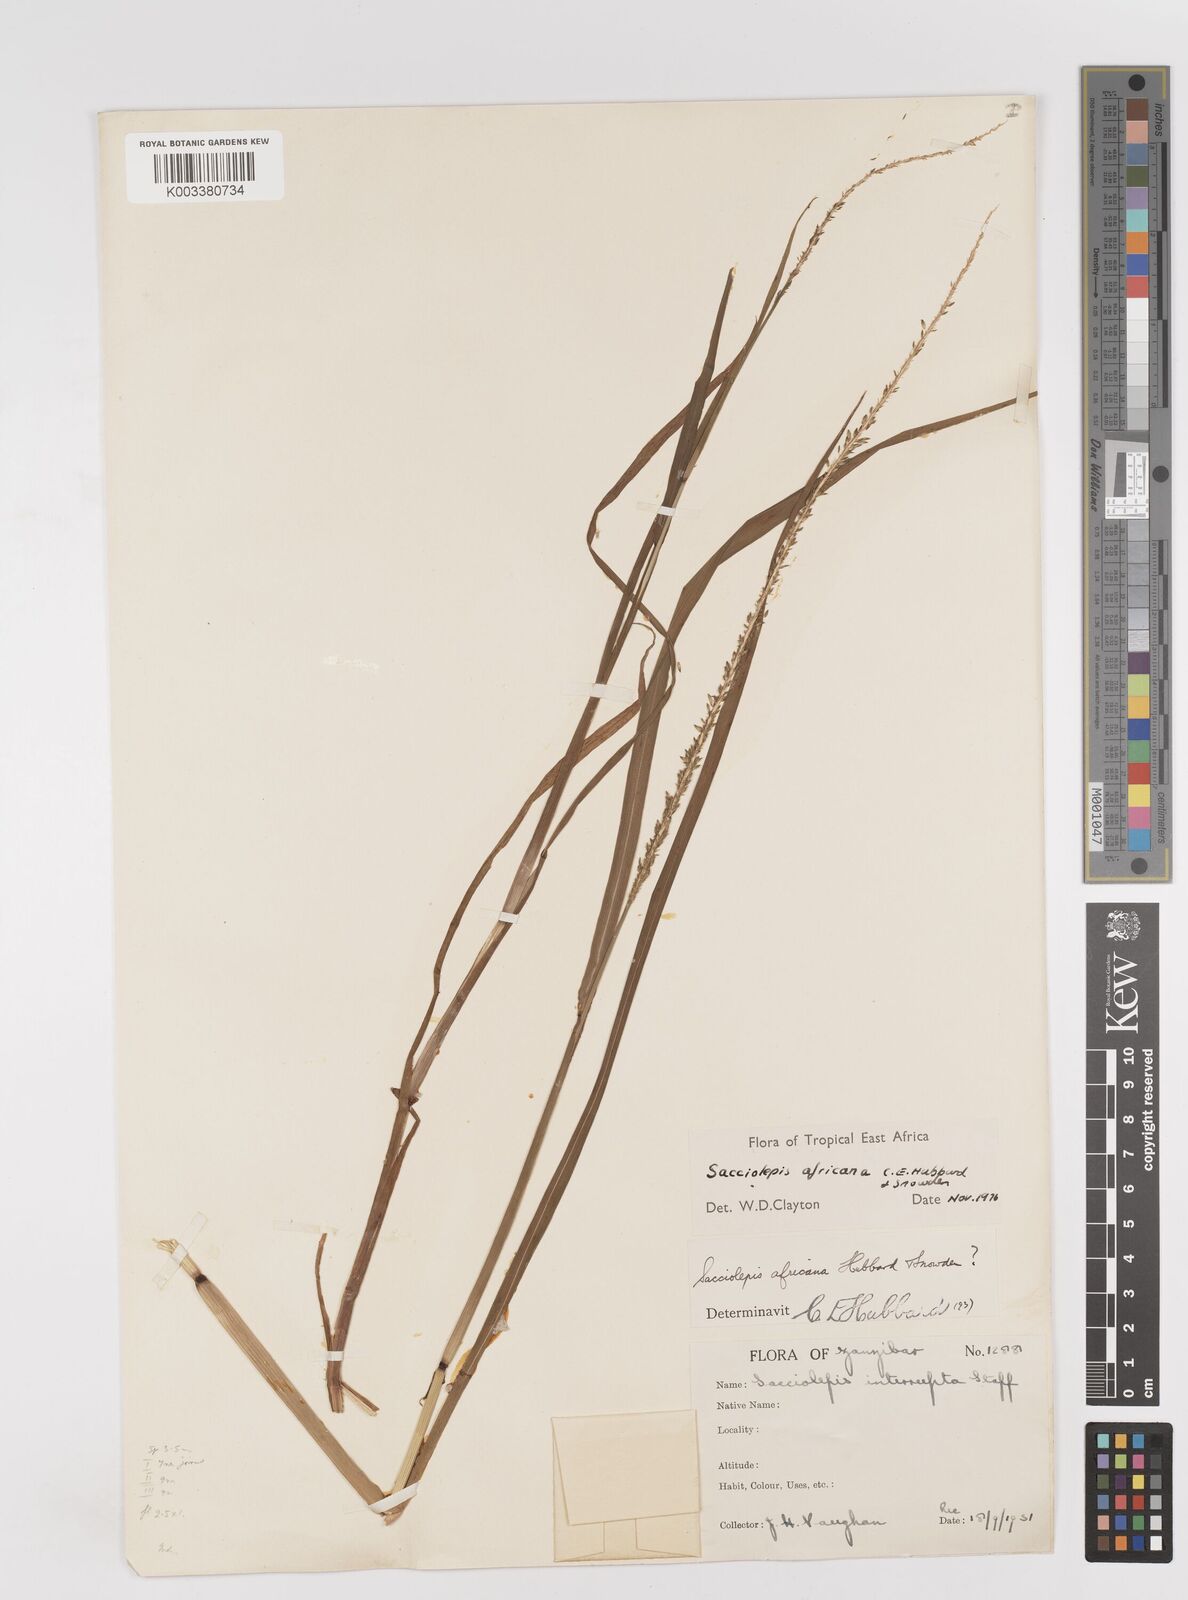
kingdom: Plantae
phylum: Tracheophyta
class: Liliopsida
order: Poales
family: Poaceae
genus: Sacciolepis
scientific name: Sacciolepis africana
